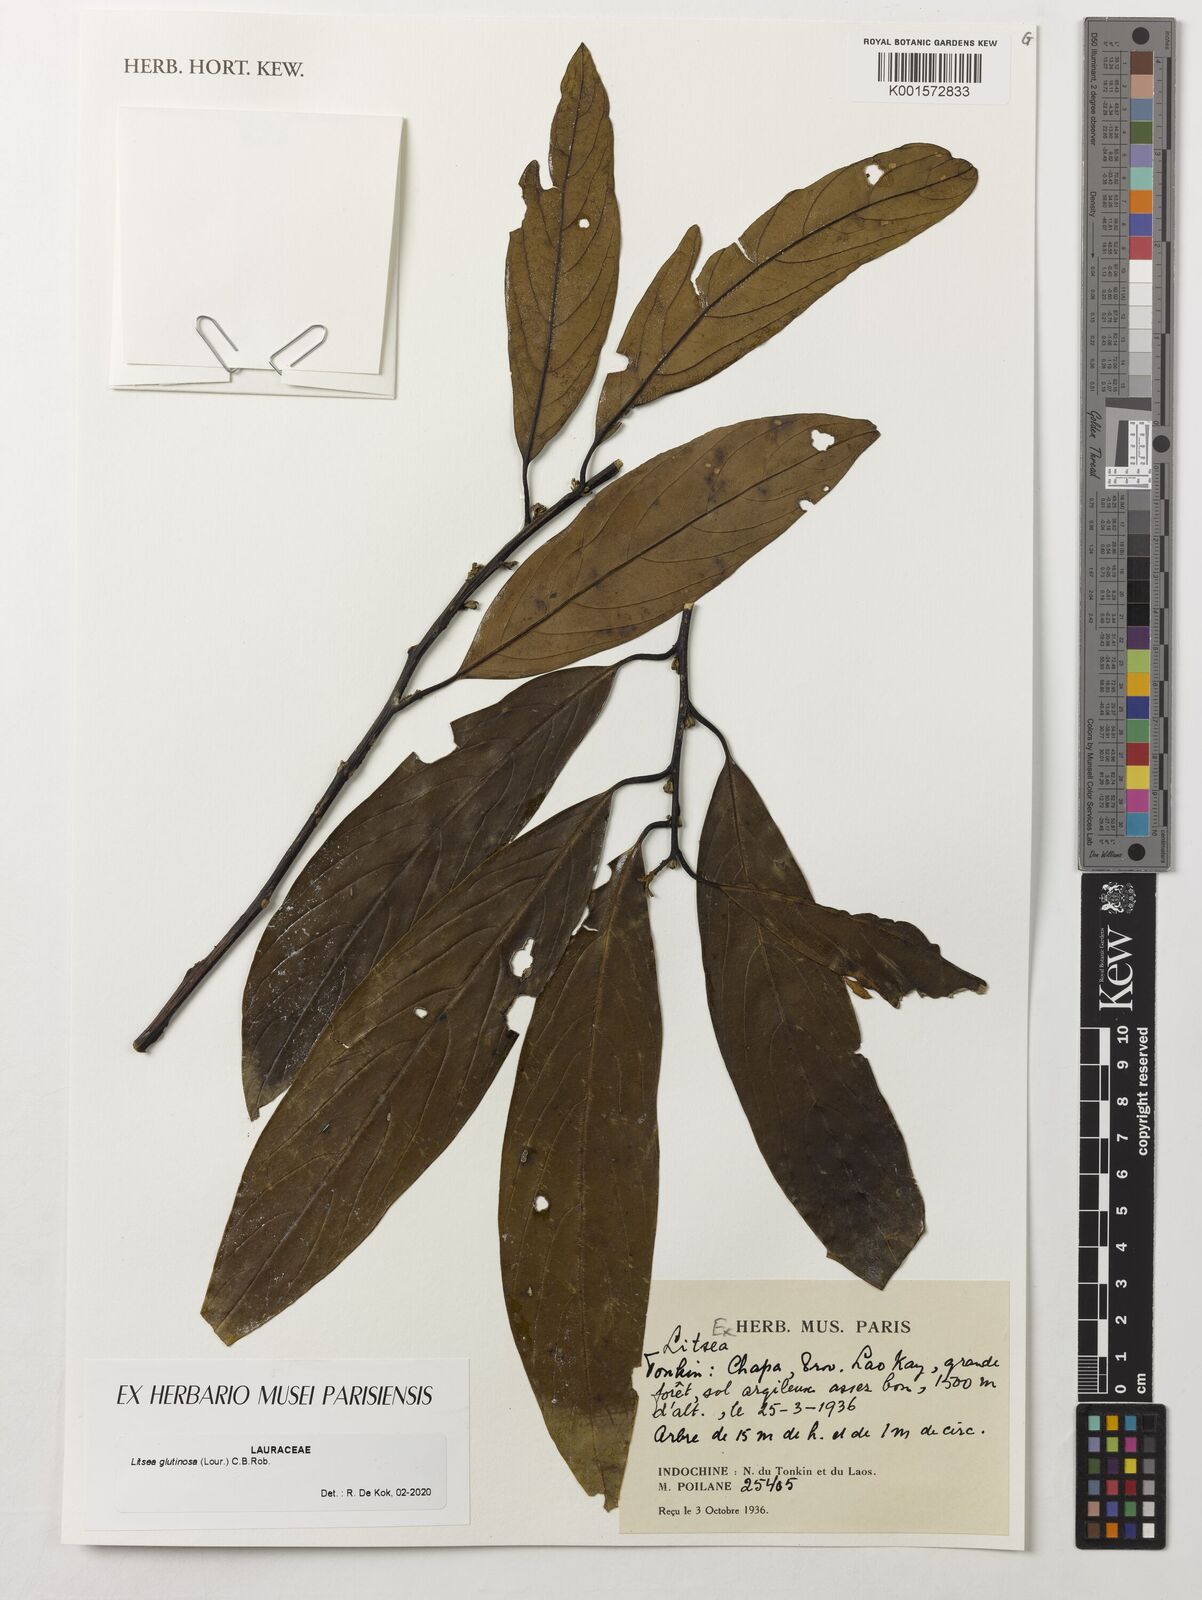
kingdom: Plantae
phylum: Tracheophyta
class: Magnoliopsida
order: Laurales
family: Lauraceae
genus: Litsea
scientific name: Litsea glutinosa
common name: Indian-laurel
